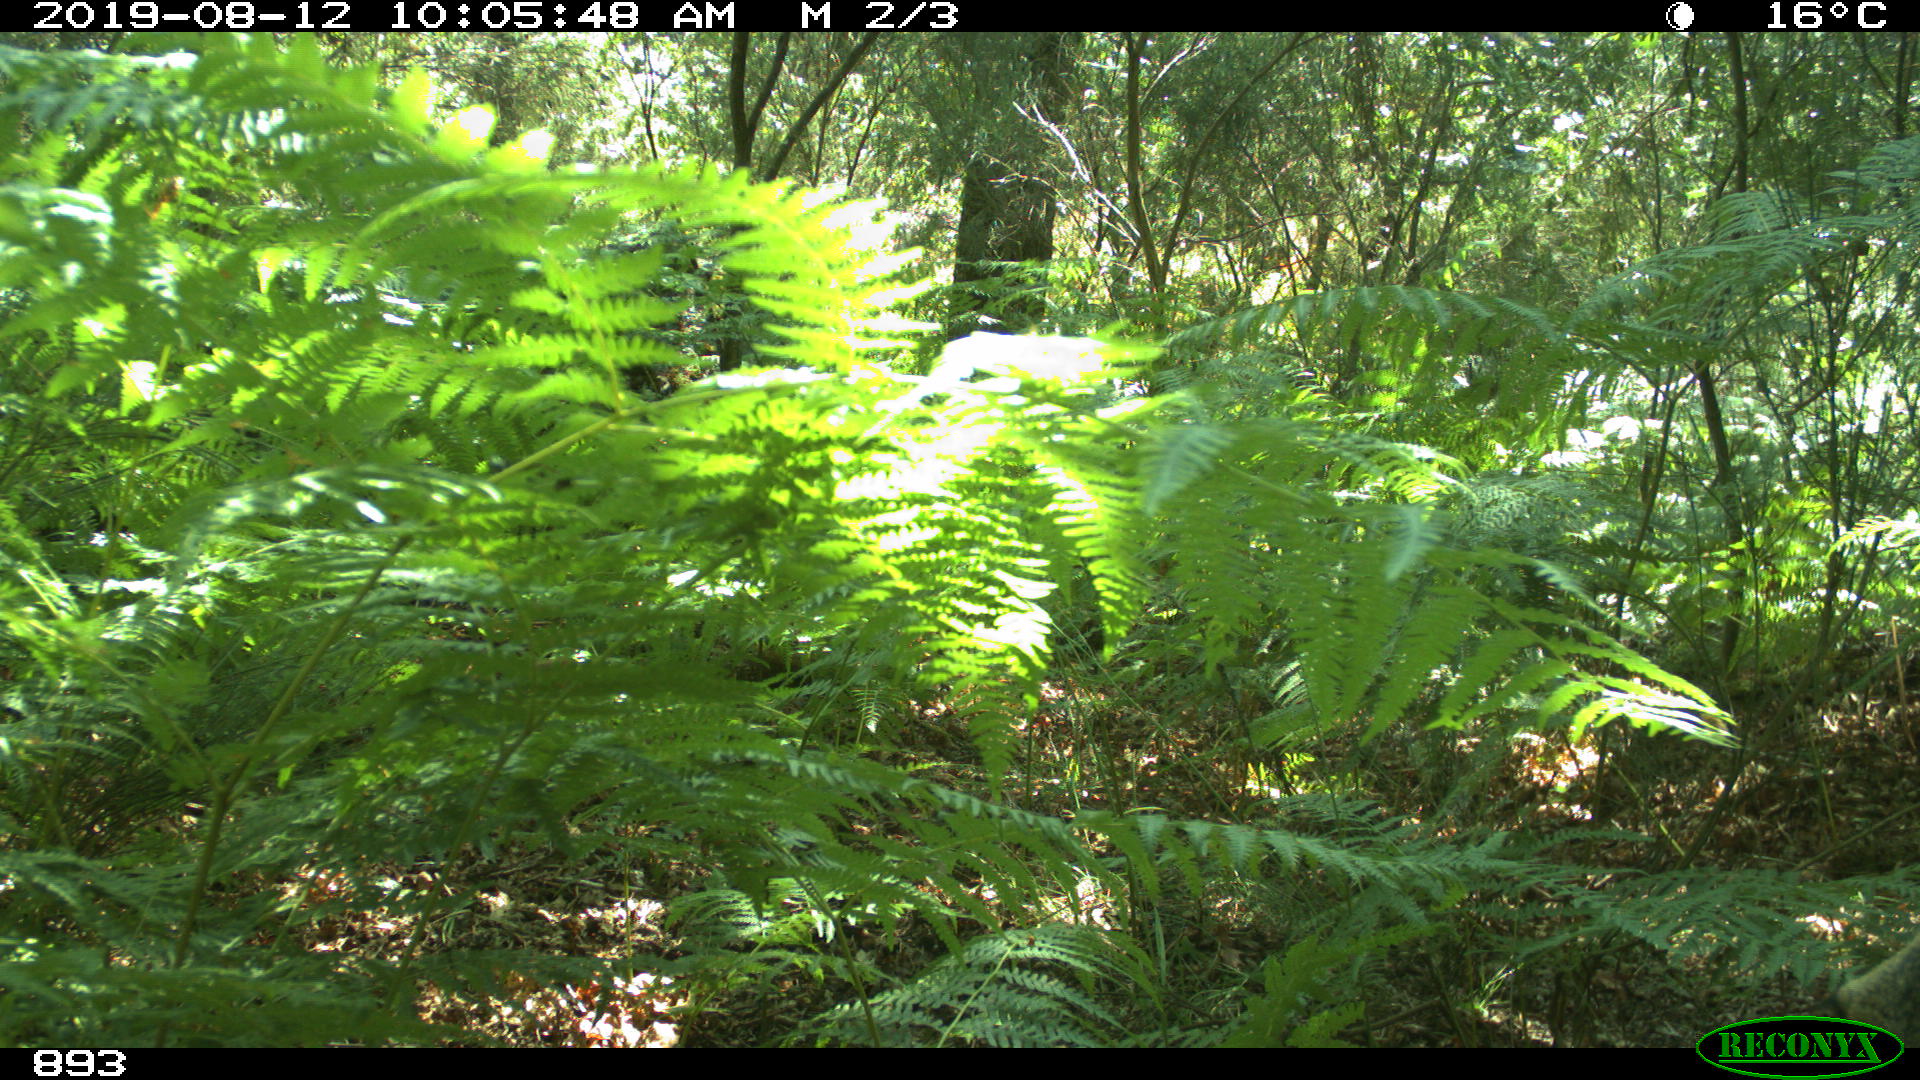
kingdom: Animalia
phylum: Chordata
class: Mammalia
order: Artiodactyla
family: Cervidae
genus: Capreolus
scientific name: Capreolus capreolus
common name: Western roe deer
